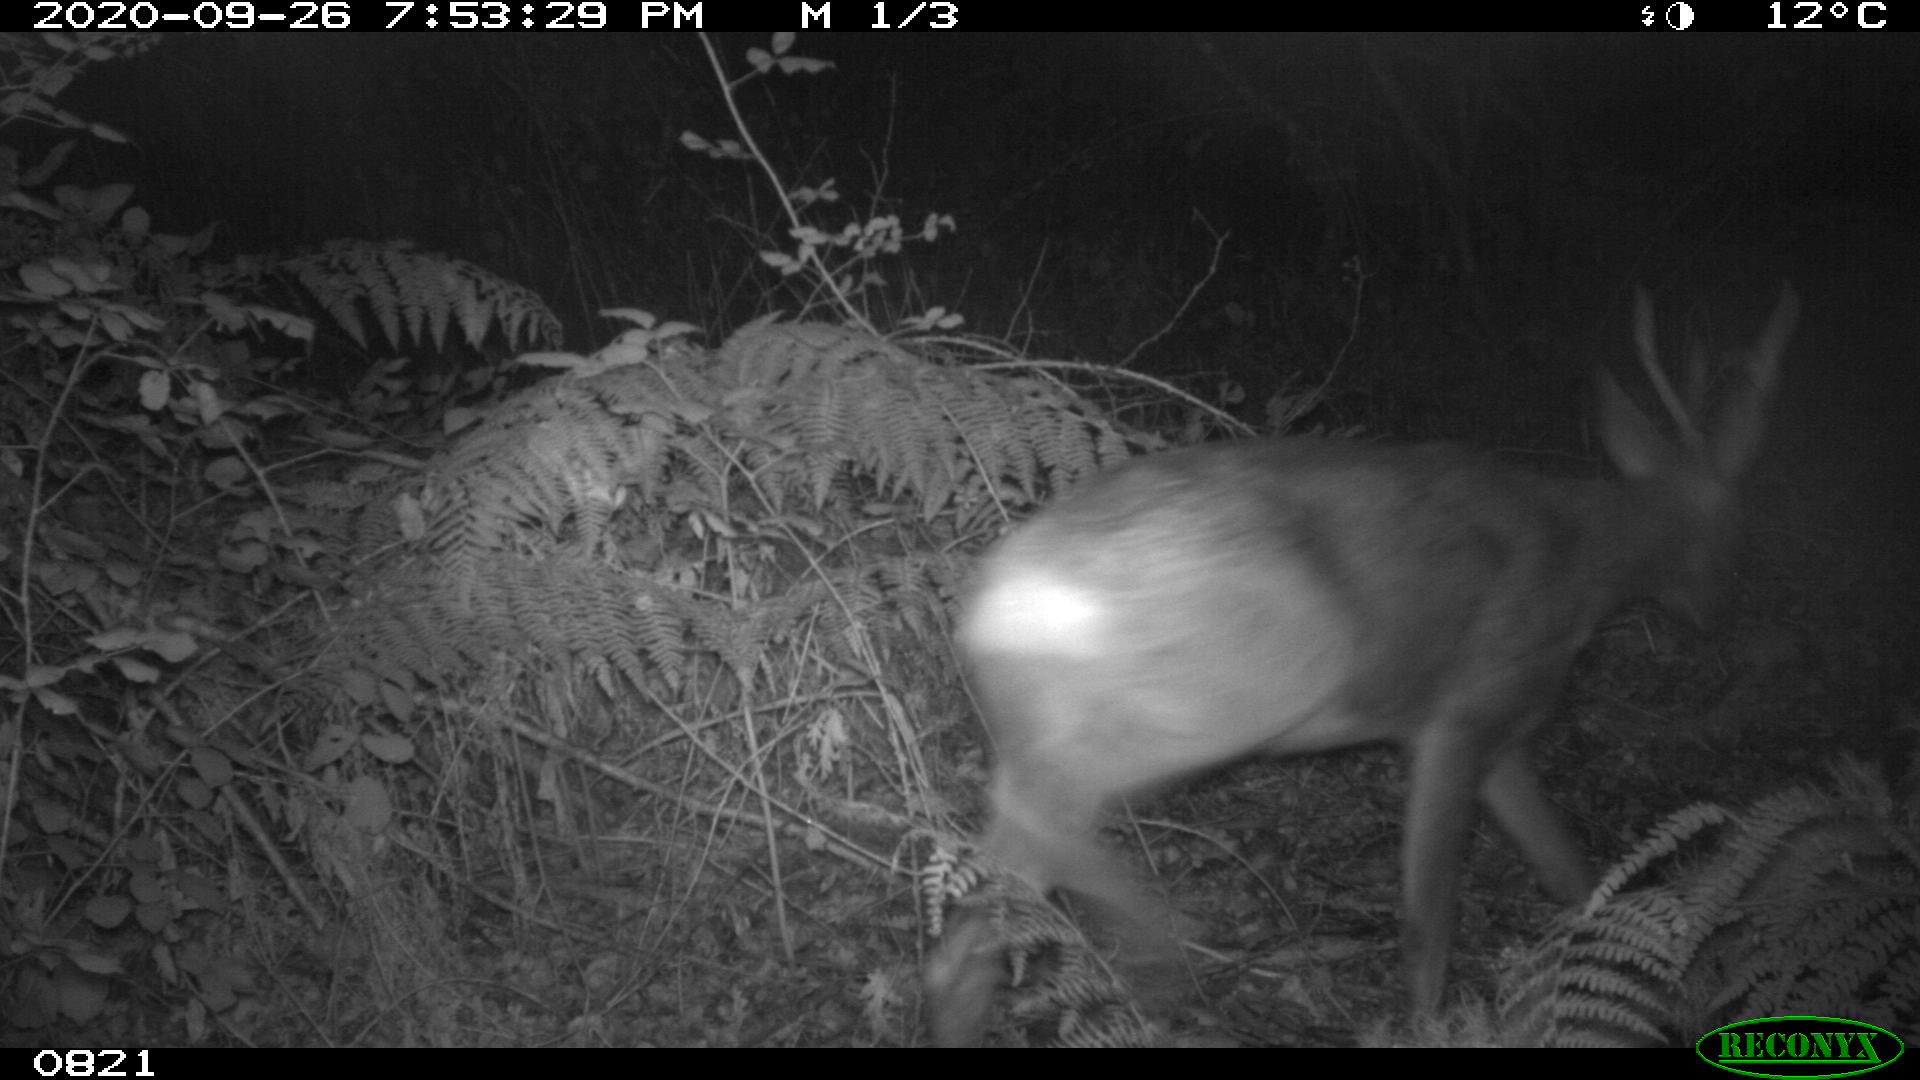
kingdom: Animalia
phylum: Chordata
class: Mammalia
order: Artiodactyla
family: Cervidae
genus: Capreolus
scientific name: Capreolus capreolus
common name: Western roe deer
